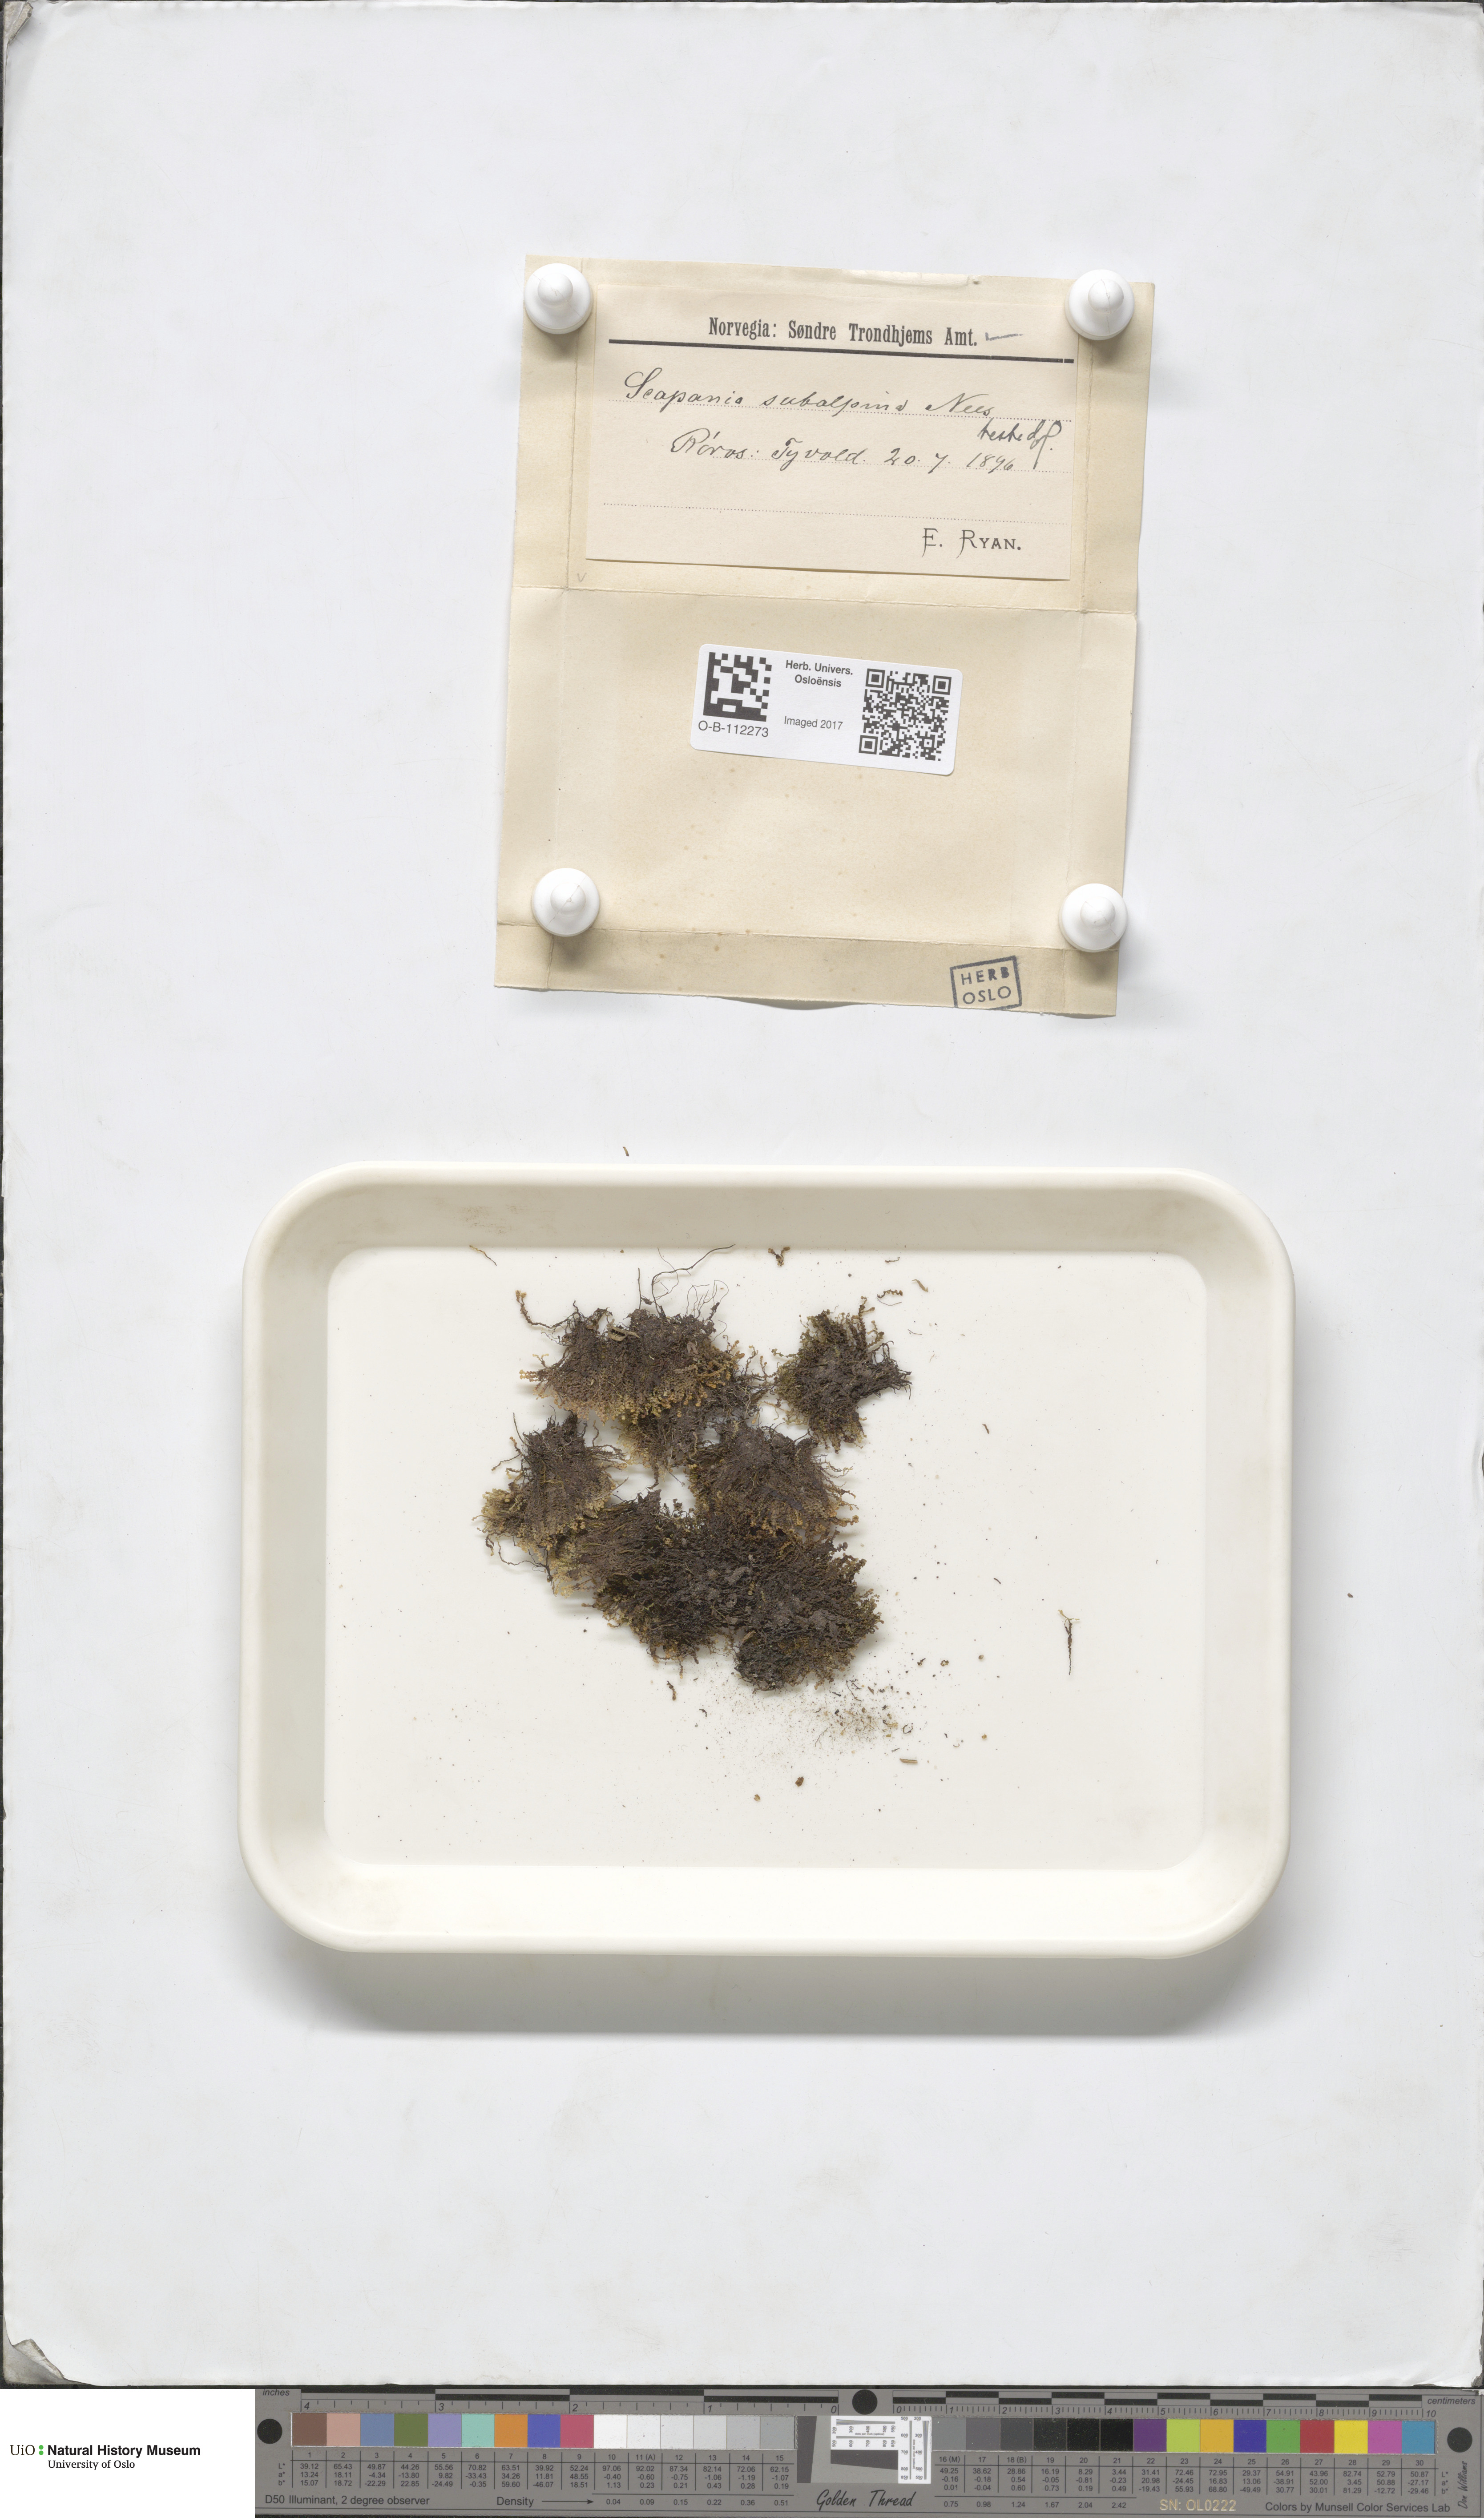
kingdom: Plantae
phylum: Marchantiophyta
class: Jungermanniopsida
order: Jungermanniales
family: Scapaniaceae
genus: Scapania
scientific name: Scapania subalpina
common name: Subalpine earwort
